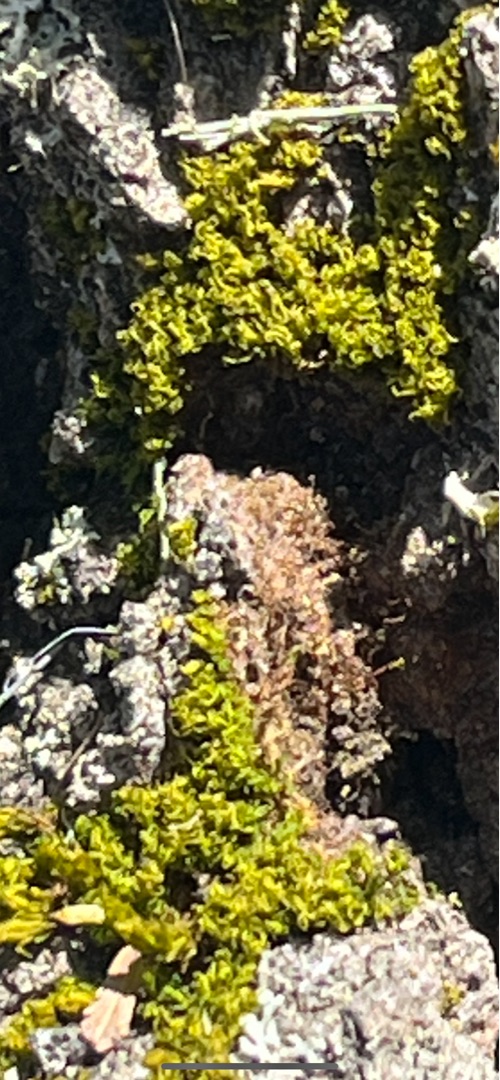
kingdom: Plantae
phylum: Bryophyta
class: Bryopsida
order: Dicranales
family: Rhabdoweisiaceae
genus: Dicranoweisia
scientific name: Dicranoweisia cirrata
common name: Almindelig krøltuemos
